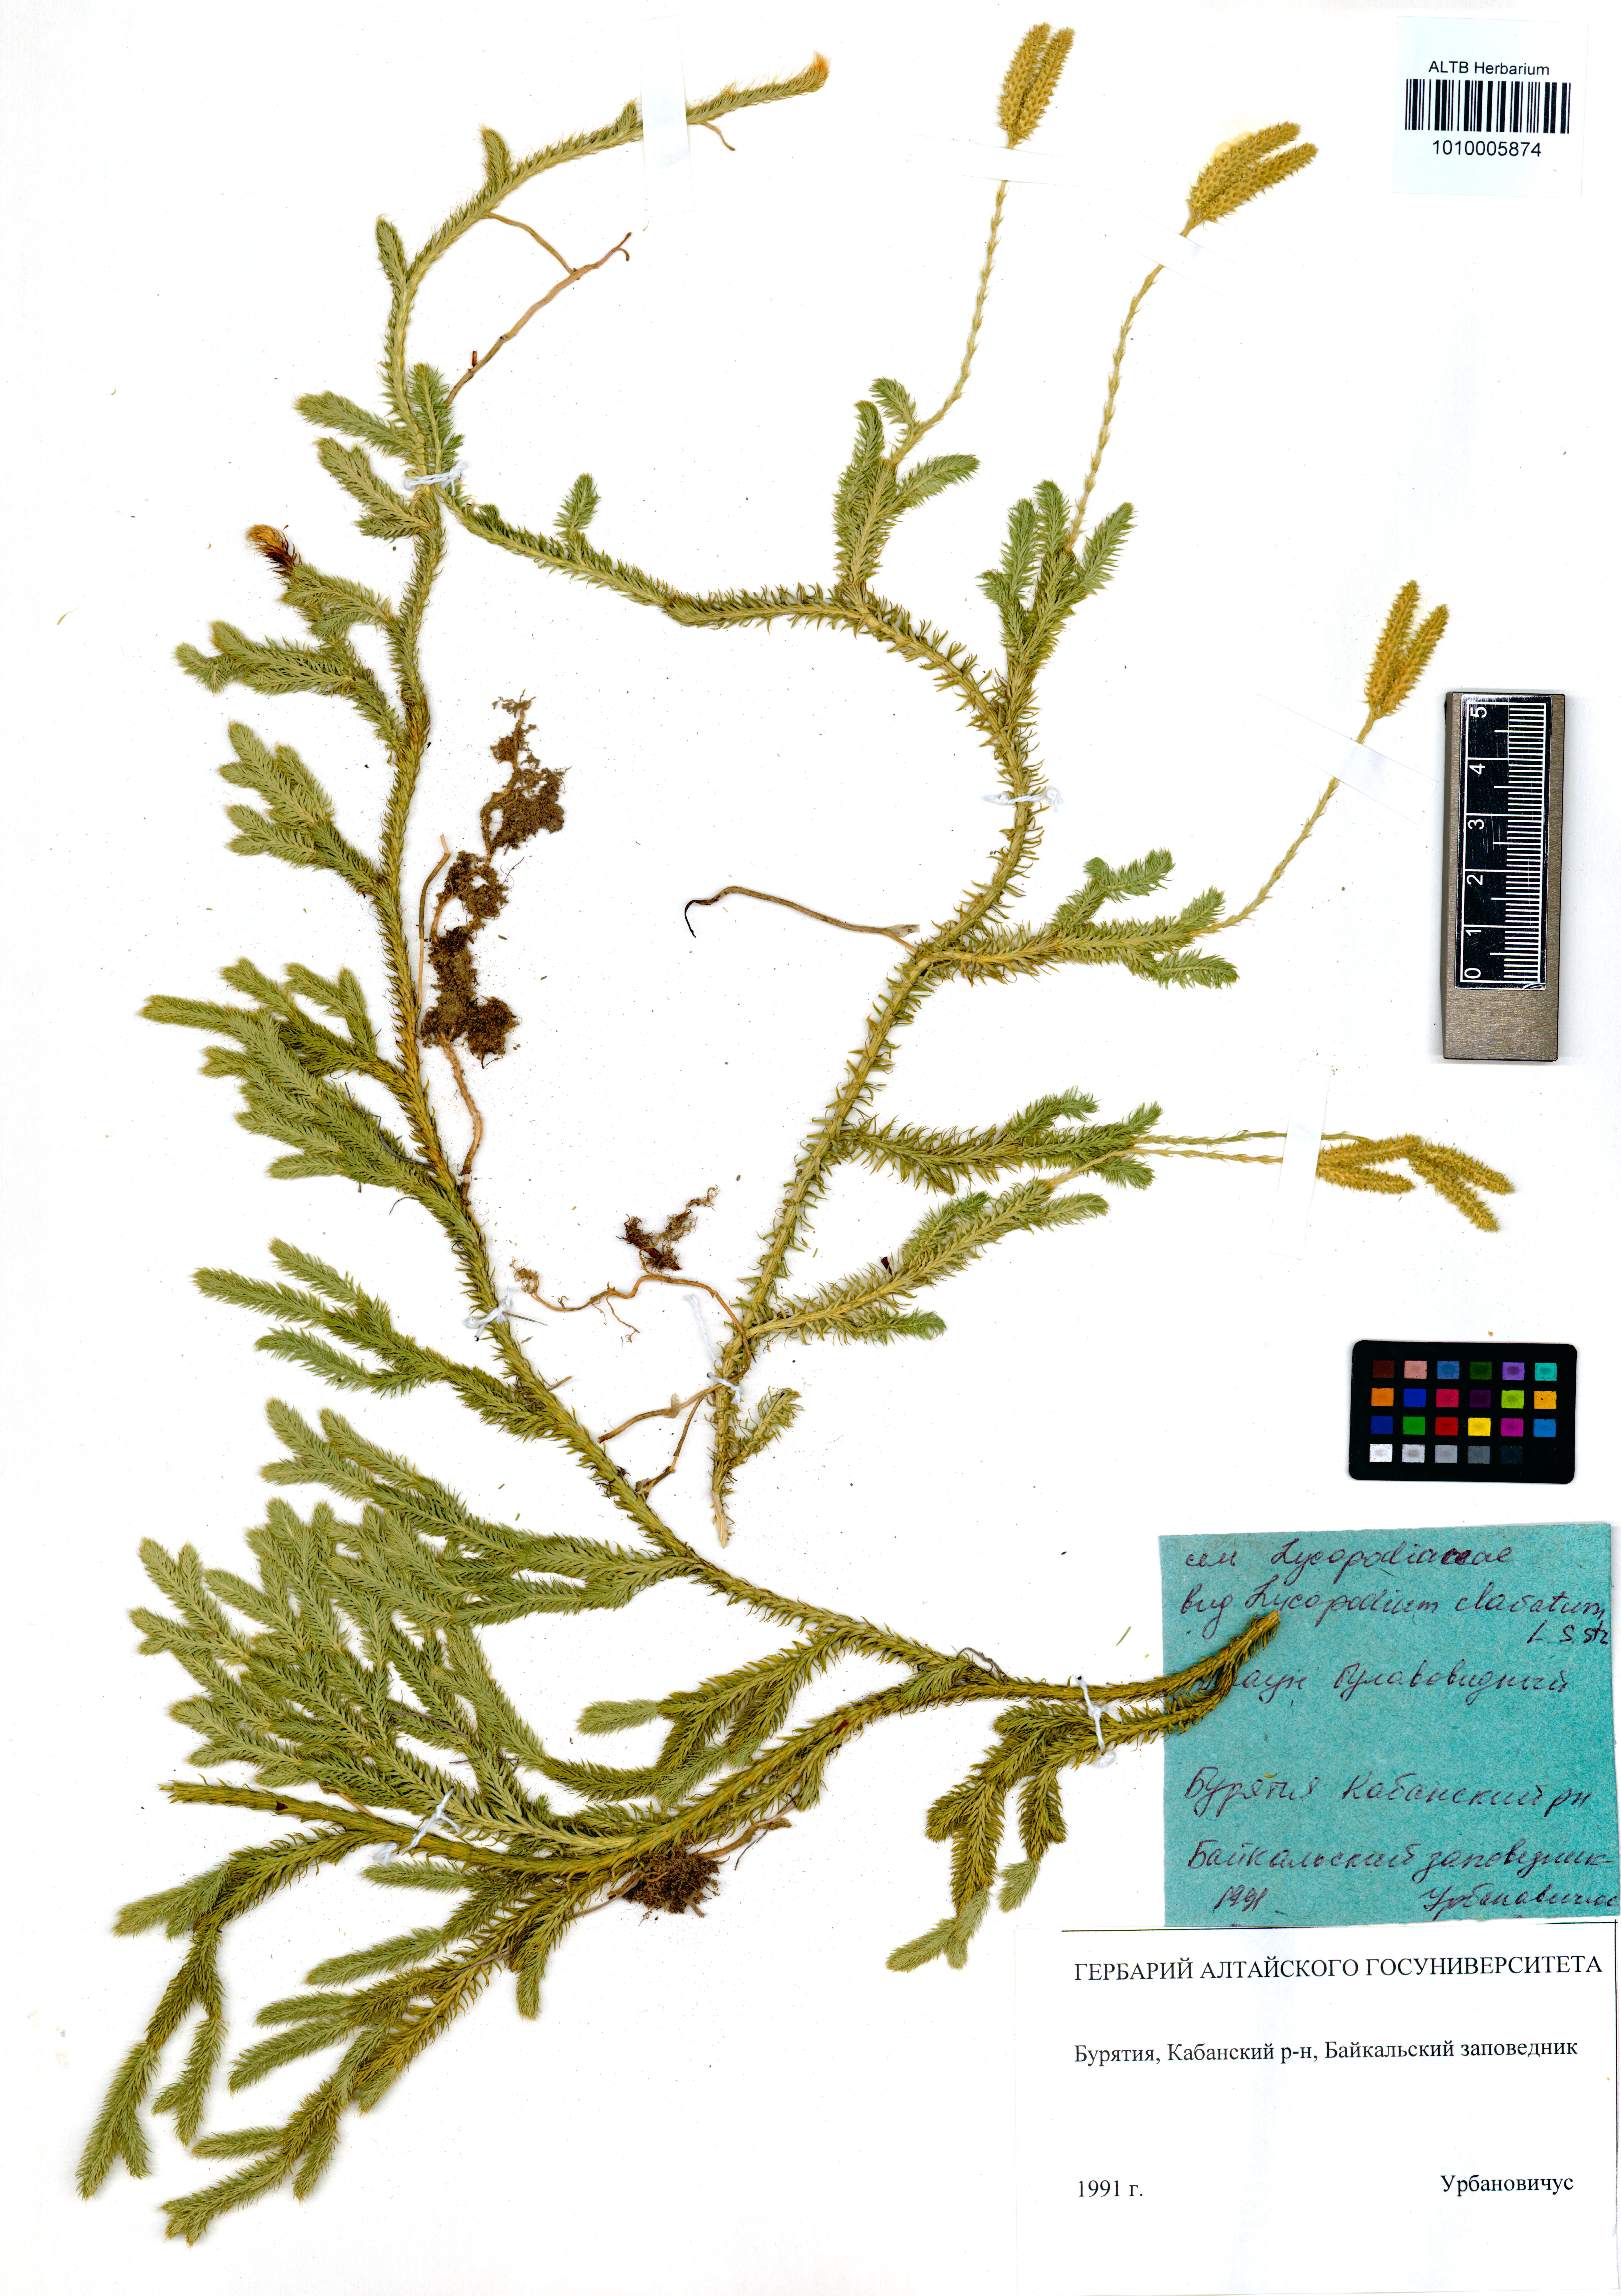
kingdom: Plantae
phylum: Tracheophyta
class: Lycopodiopsida
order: Lycopodiales
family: Lycopodiaceae
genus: Lycopodium
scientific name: Lycopodium clavatum
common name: Stag's-horn clubmoss
